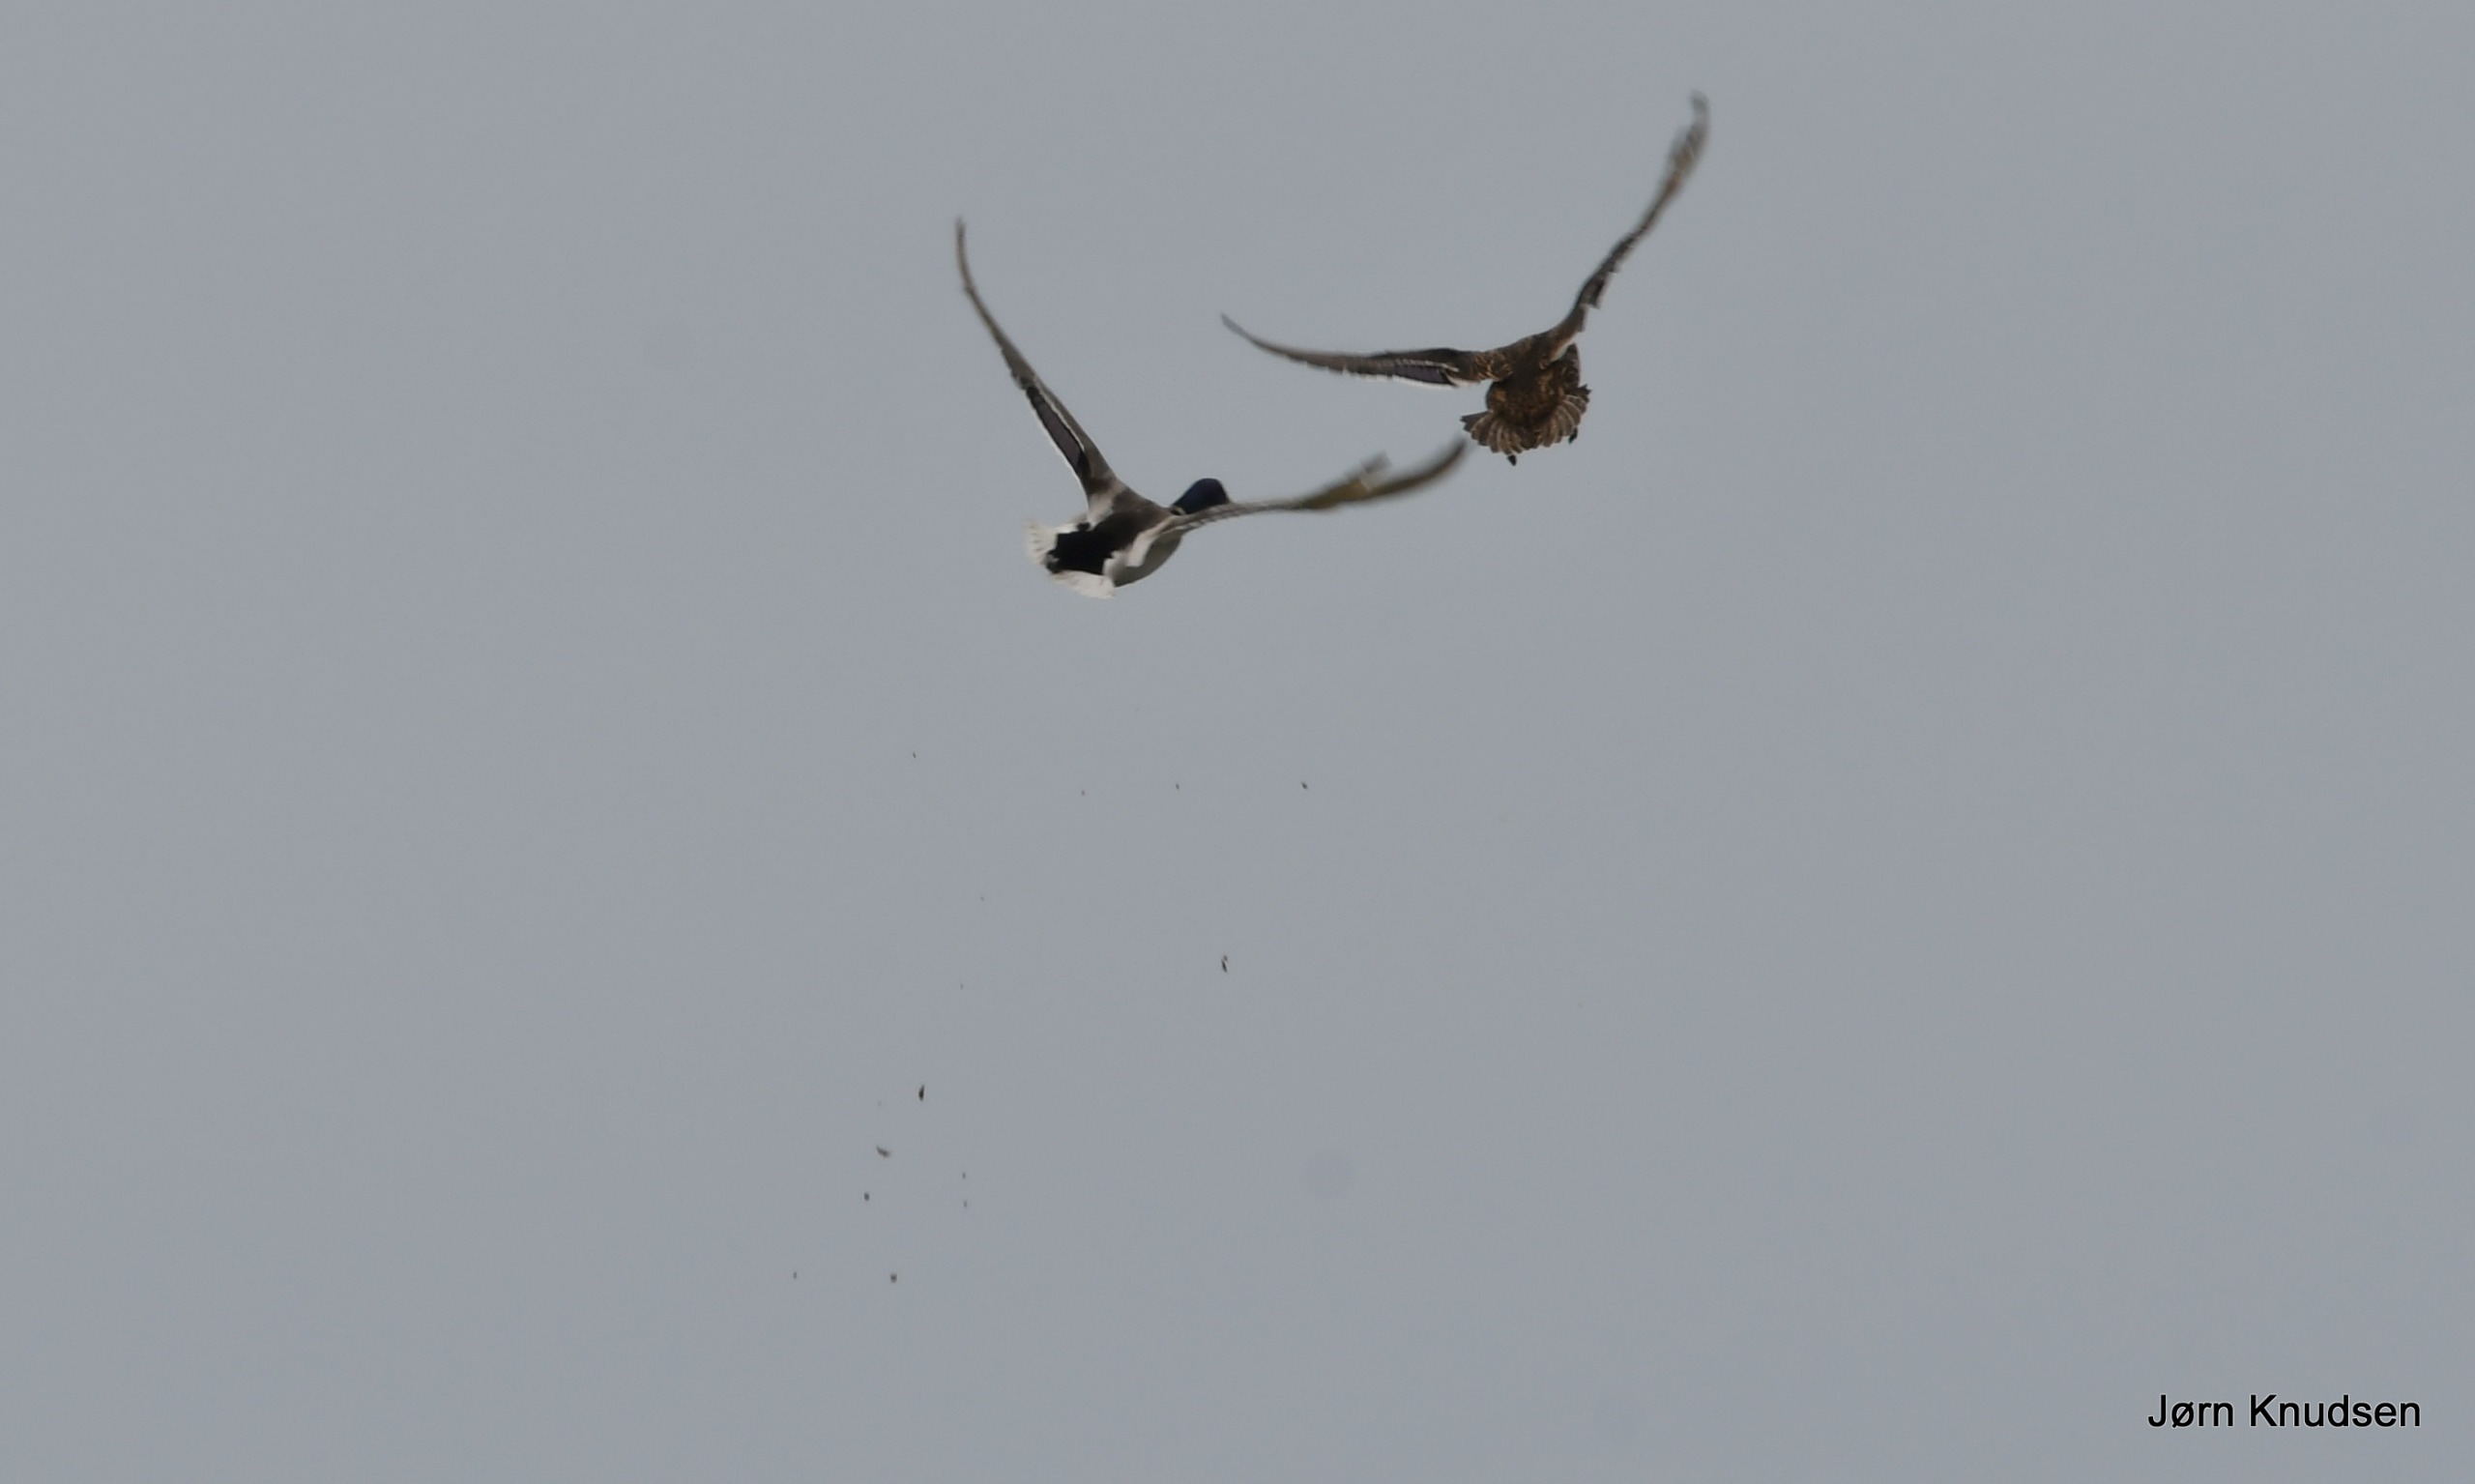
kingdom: Animalia
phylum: Chordata
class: Aves
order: Anseriformes
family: Anatidae
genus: Anas
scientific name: Anas platyrhynchos
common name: Gråand
